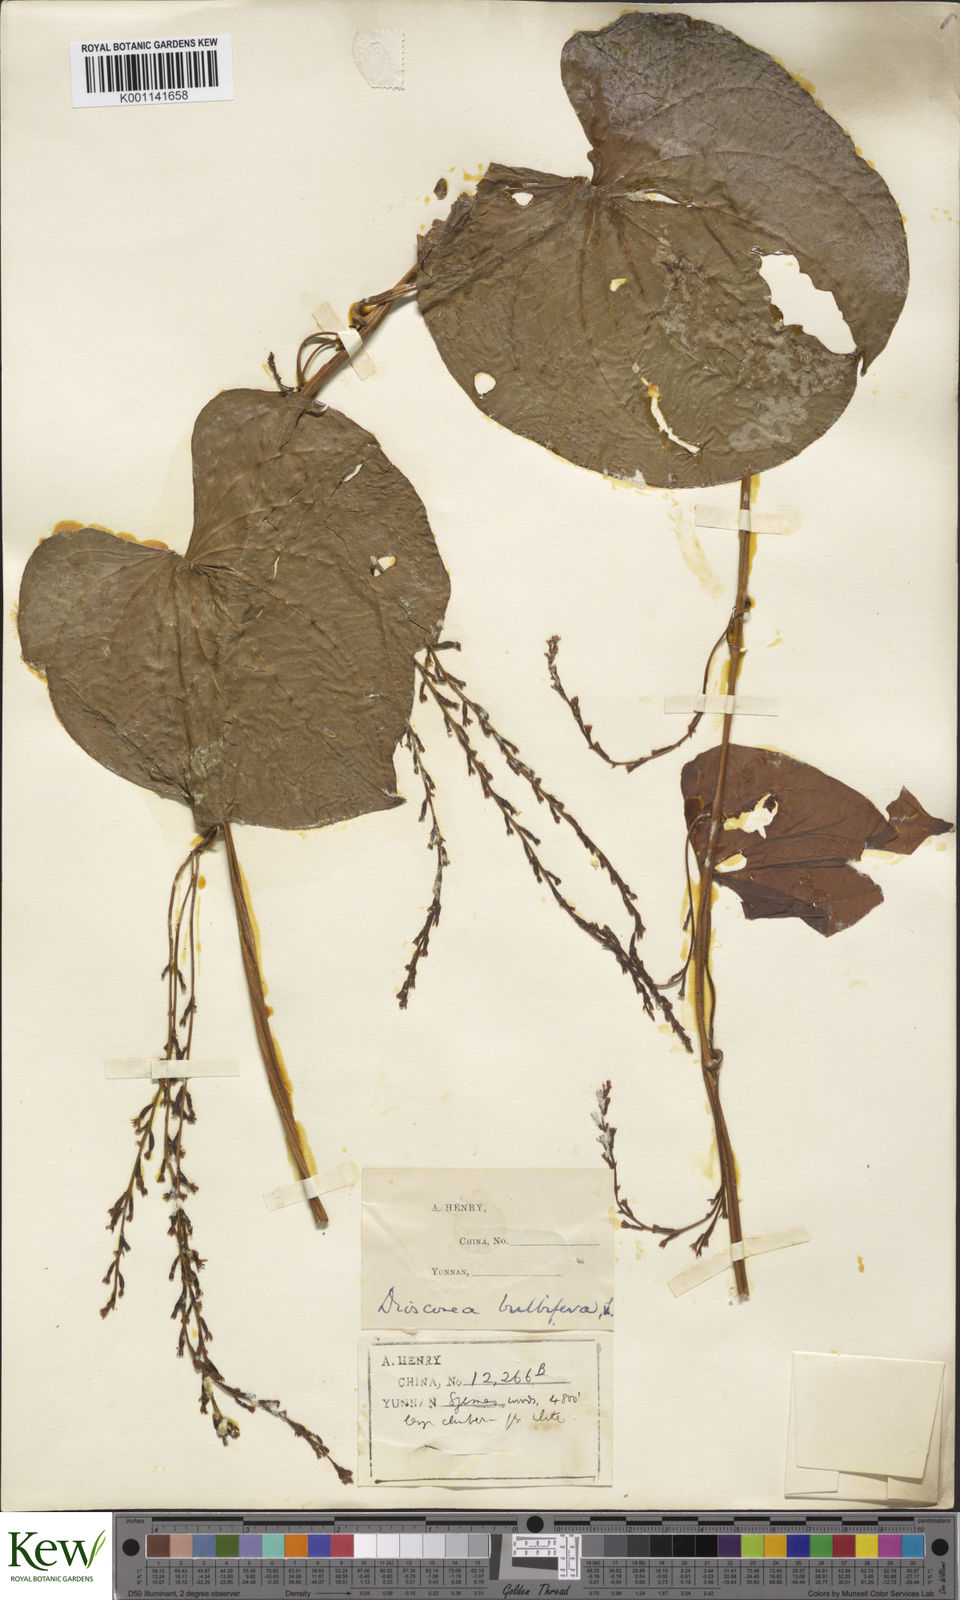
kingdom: Plantae
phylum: Tracheophyta
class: Liliopsida
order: Dioscoreales
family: Dioscoreaceae
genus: Dioscorea
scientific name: Dioscorea bulbifera
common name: Air yam
